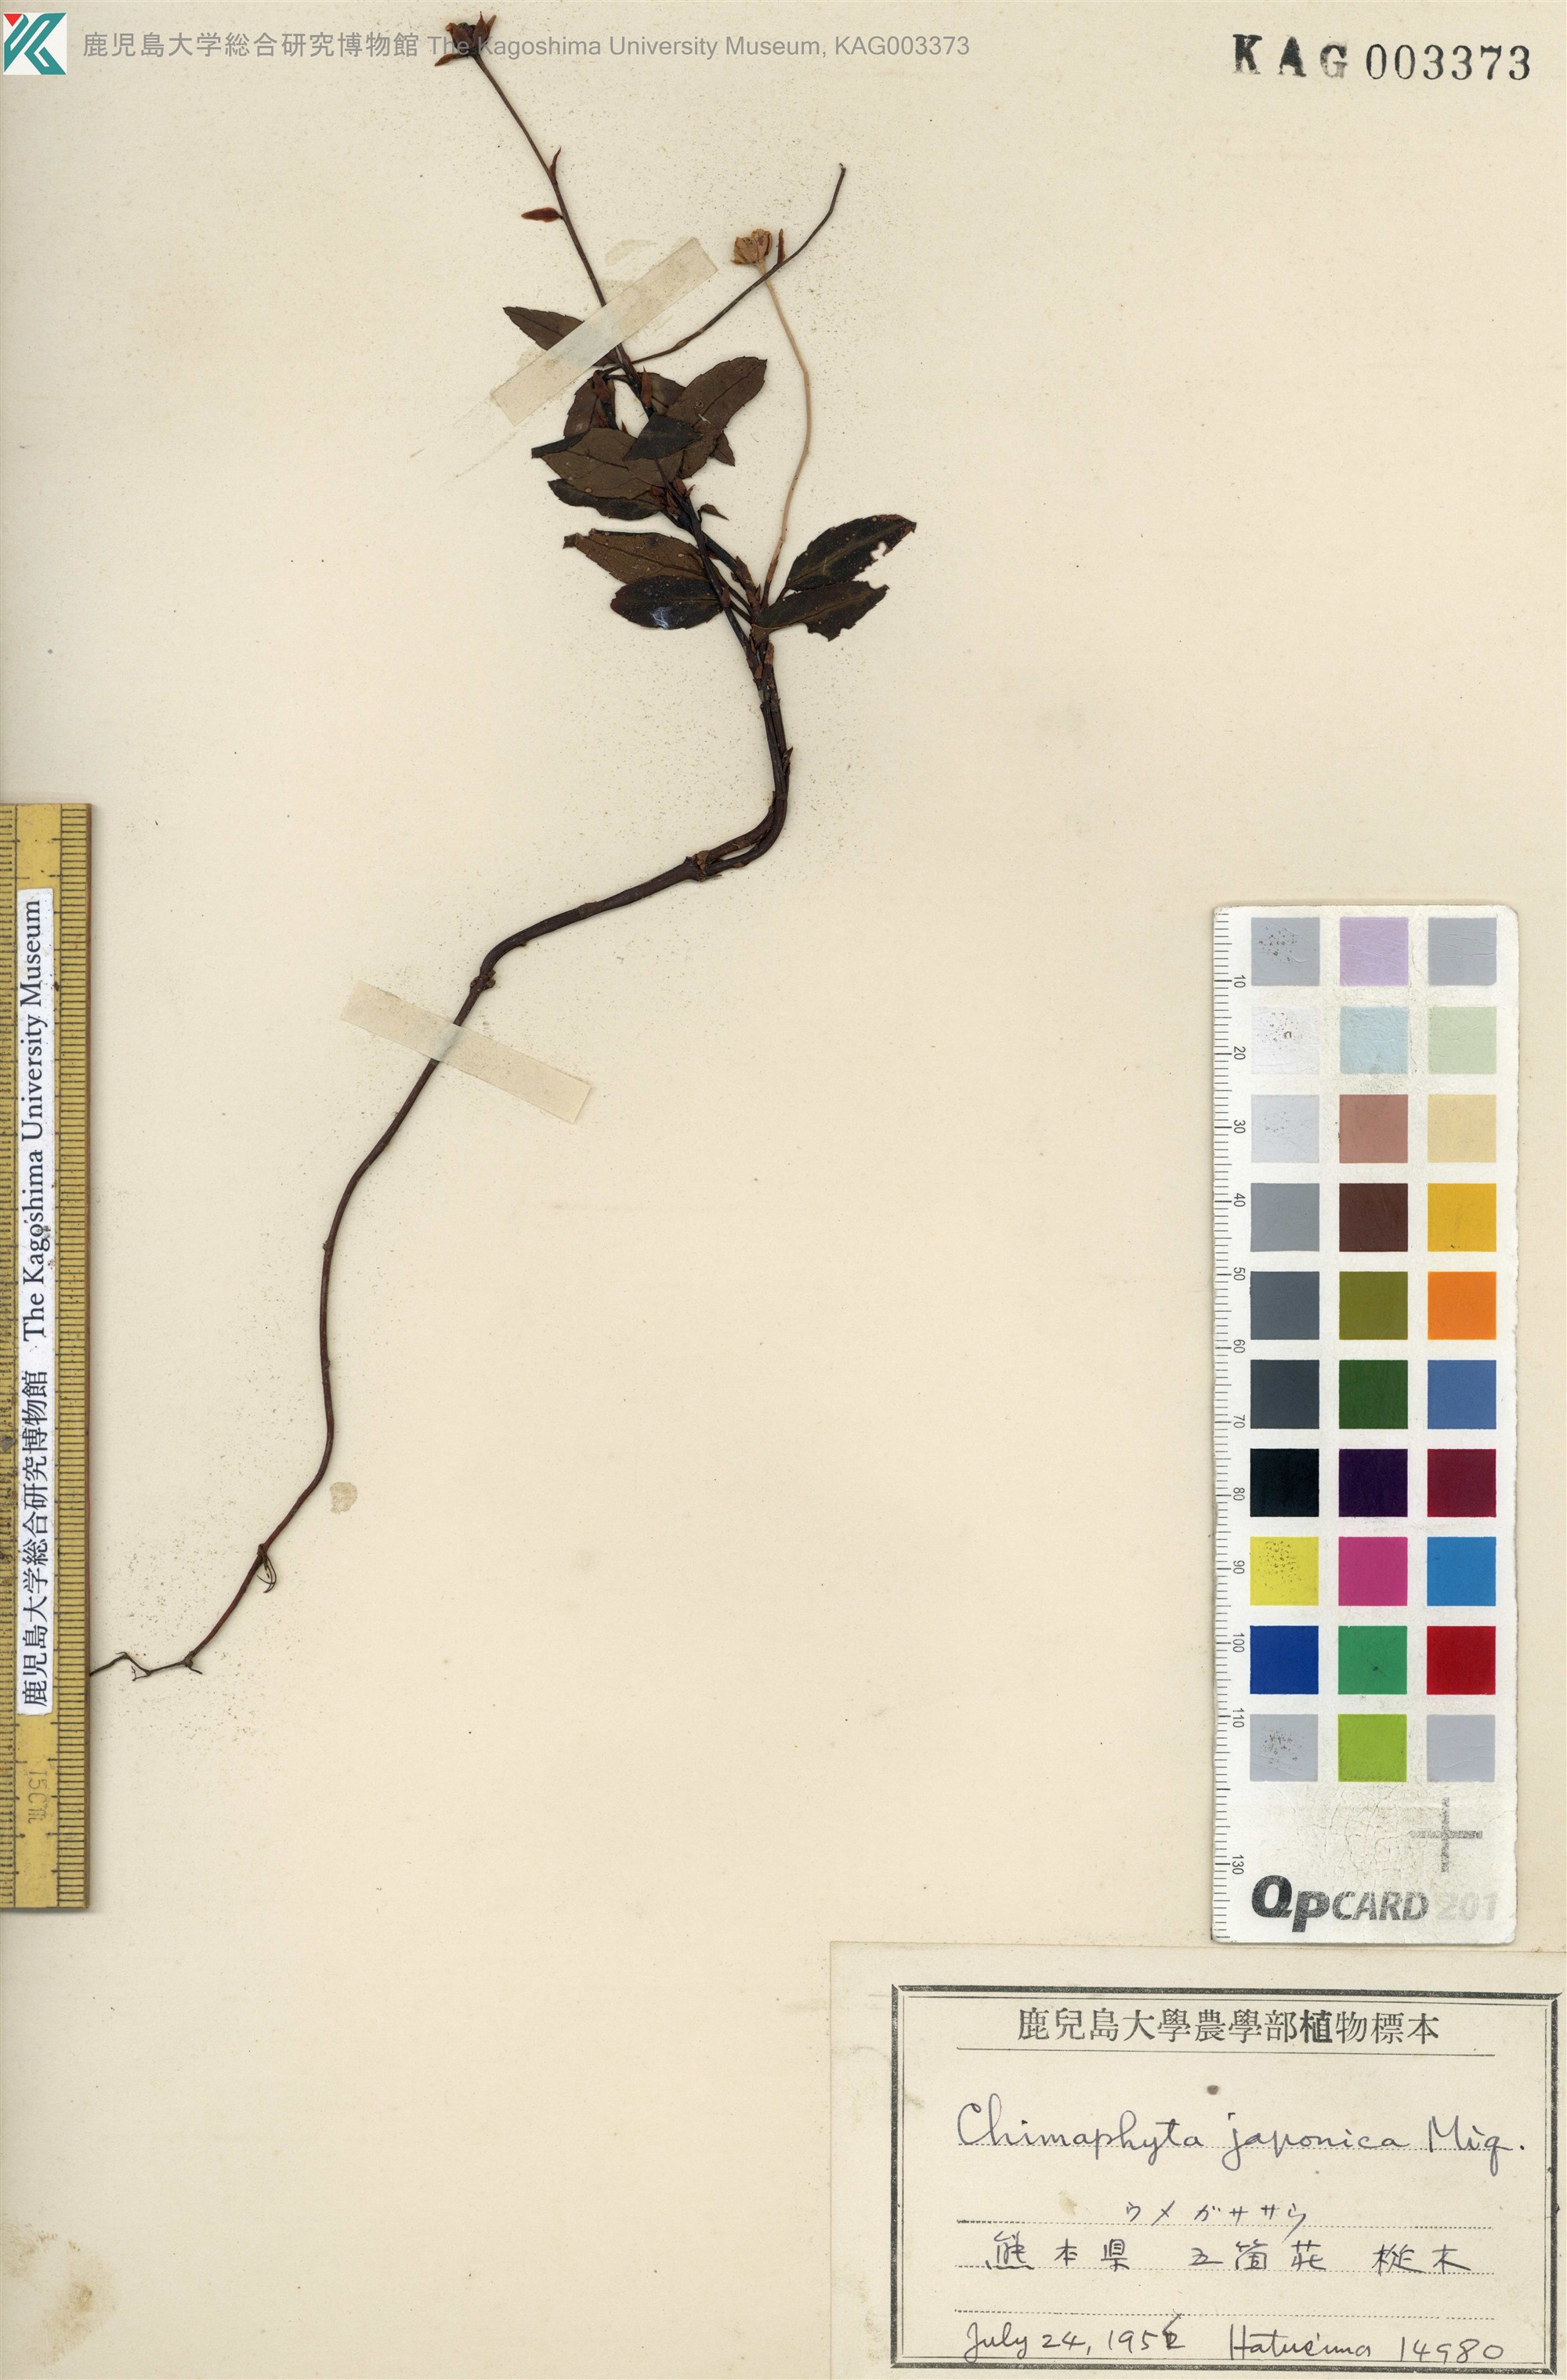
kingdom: Plantae
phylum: Tracheophyta
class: Magnoliopsida
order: Ericales
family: Ericaceae
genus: Chimaphila
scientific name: Chimaphila japonica
